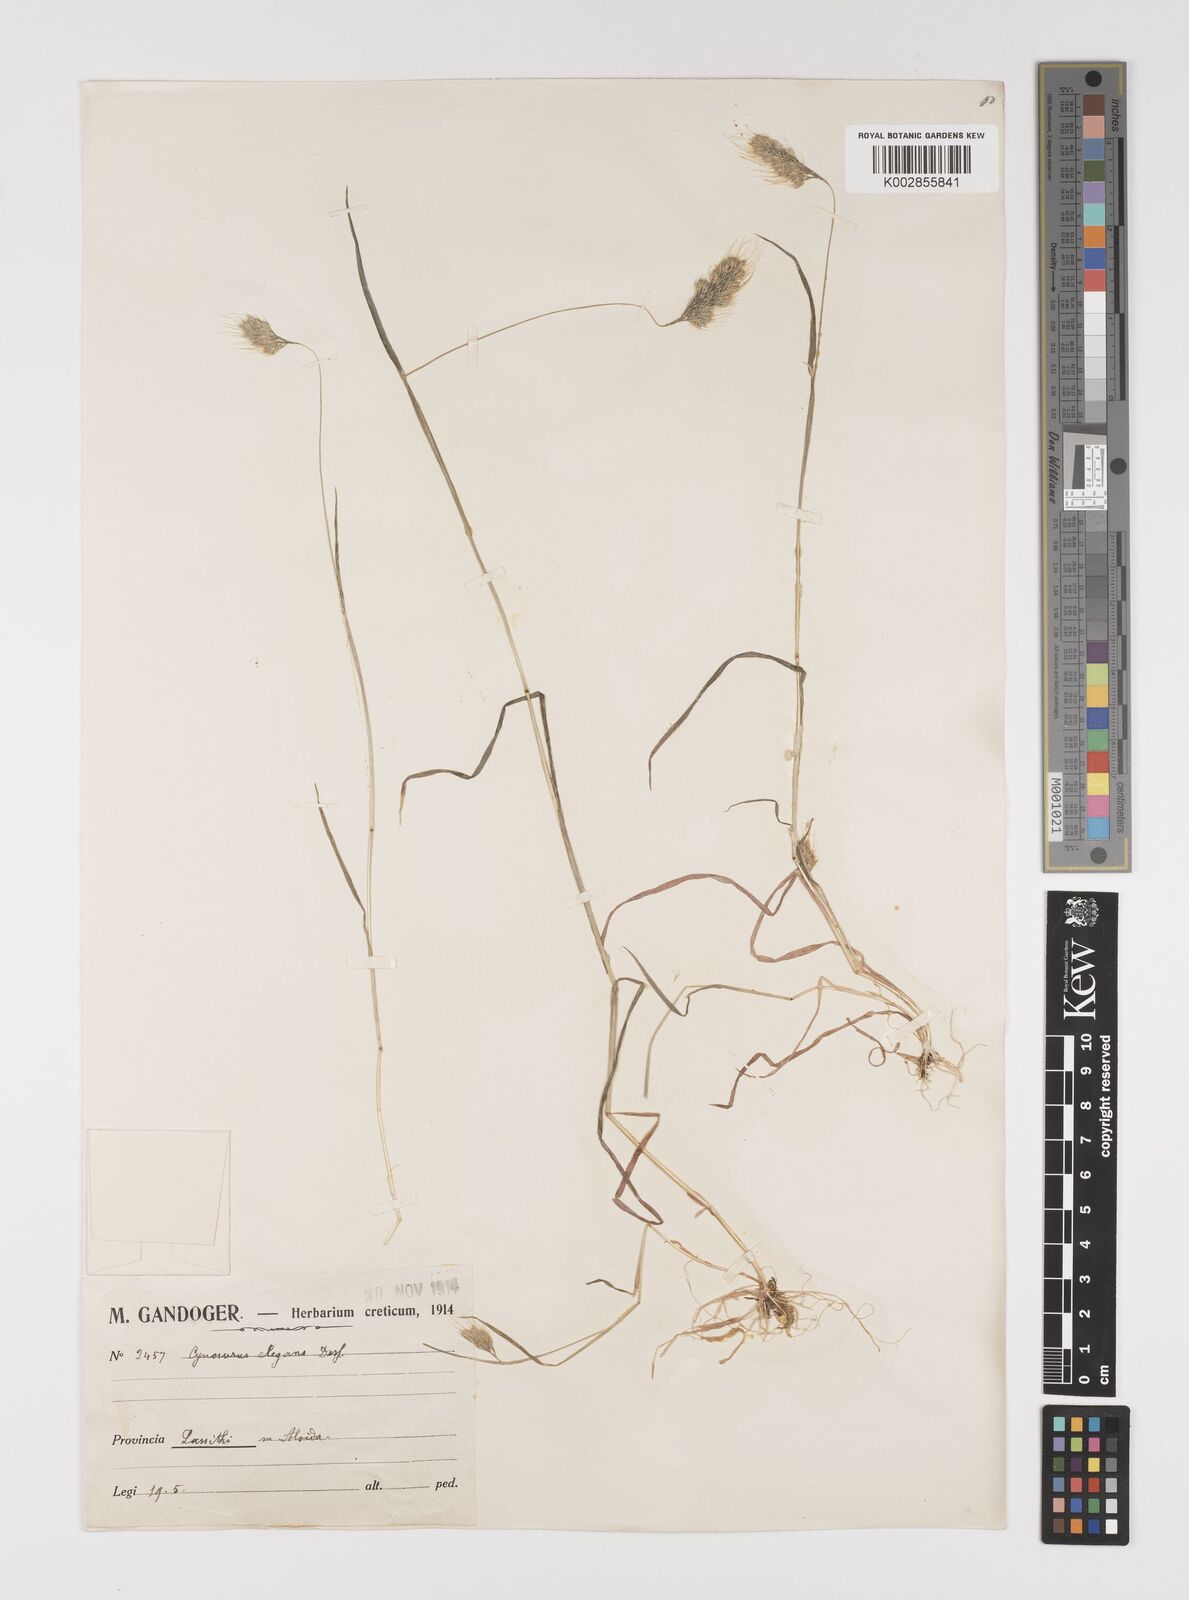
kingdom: Plantae
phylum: Tracheophyta
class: Liliopsida
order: Poales
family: Poaceae
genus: Cynosurus
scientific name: Cynosurus elegans
